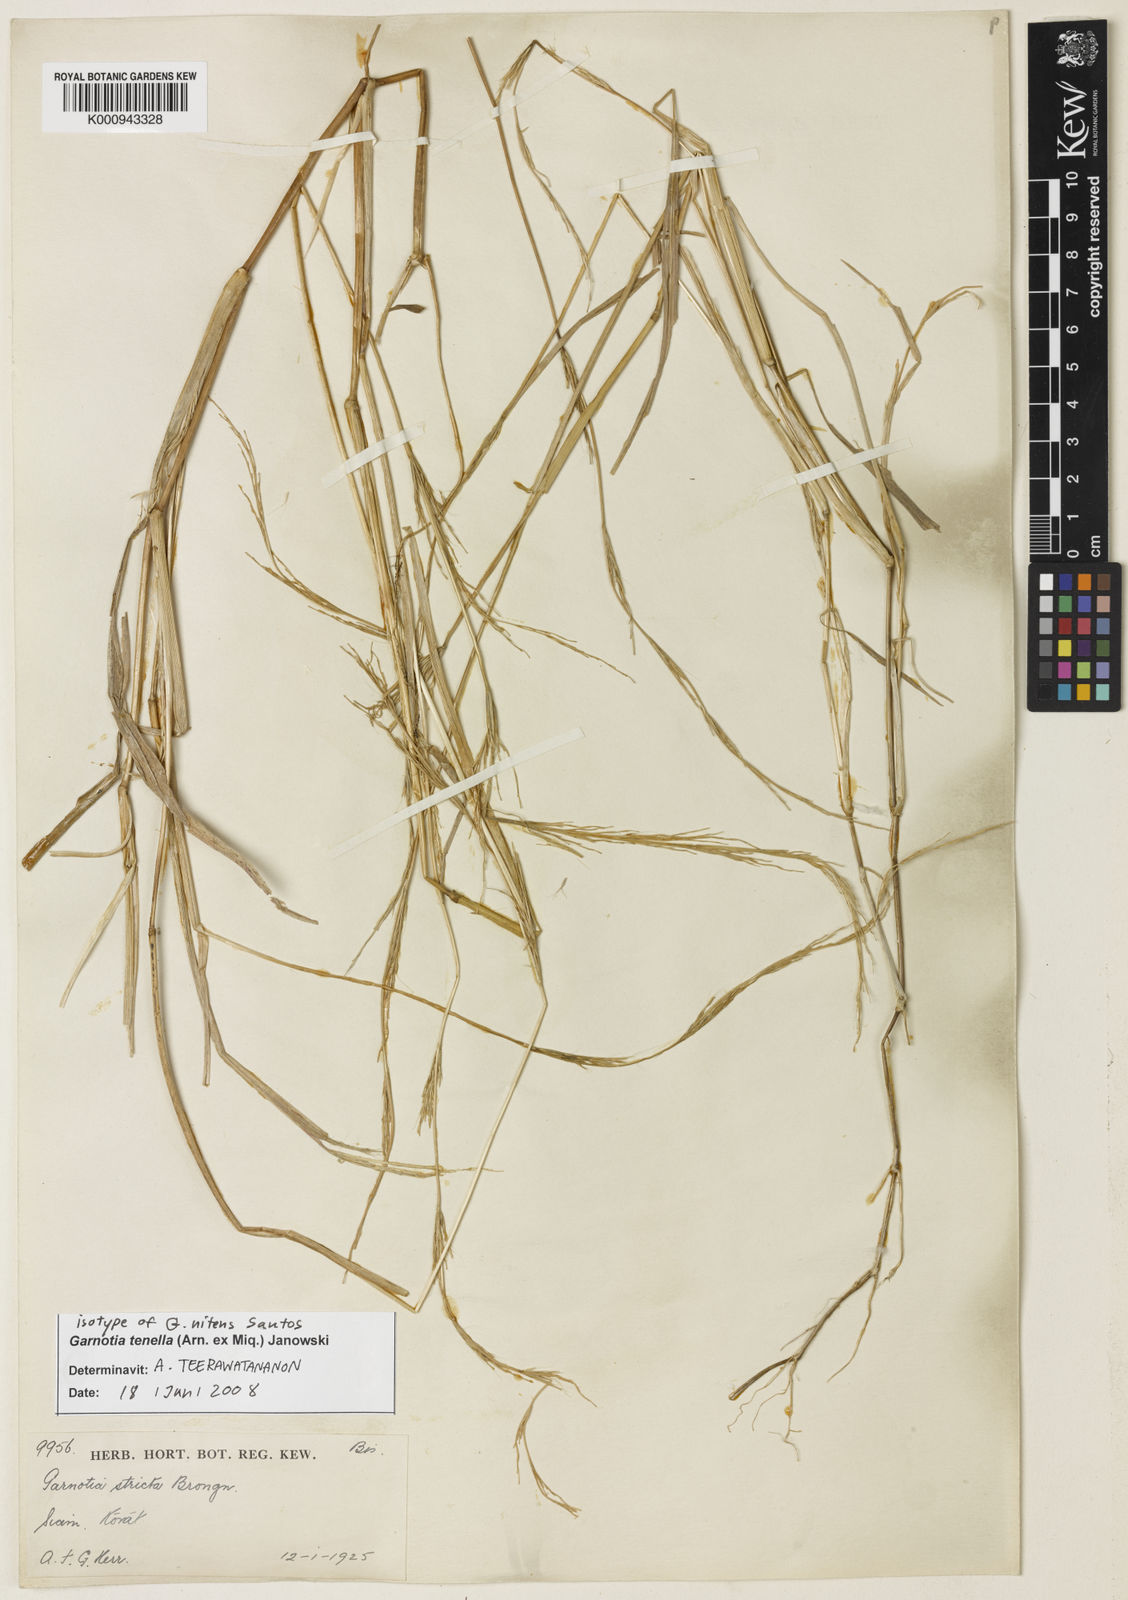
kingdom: Plantae
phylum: Tracheophyta
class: Liliopsida
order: Poales
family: Poaceae
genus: Garnotia
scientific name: Garnotia stricta
